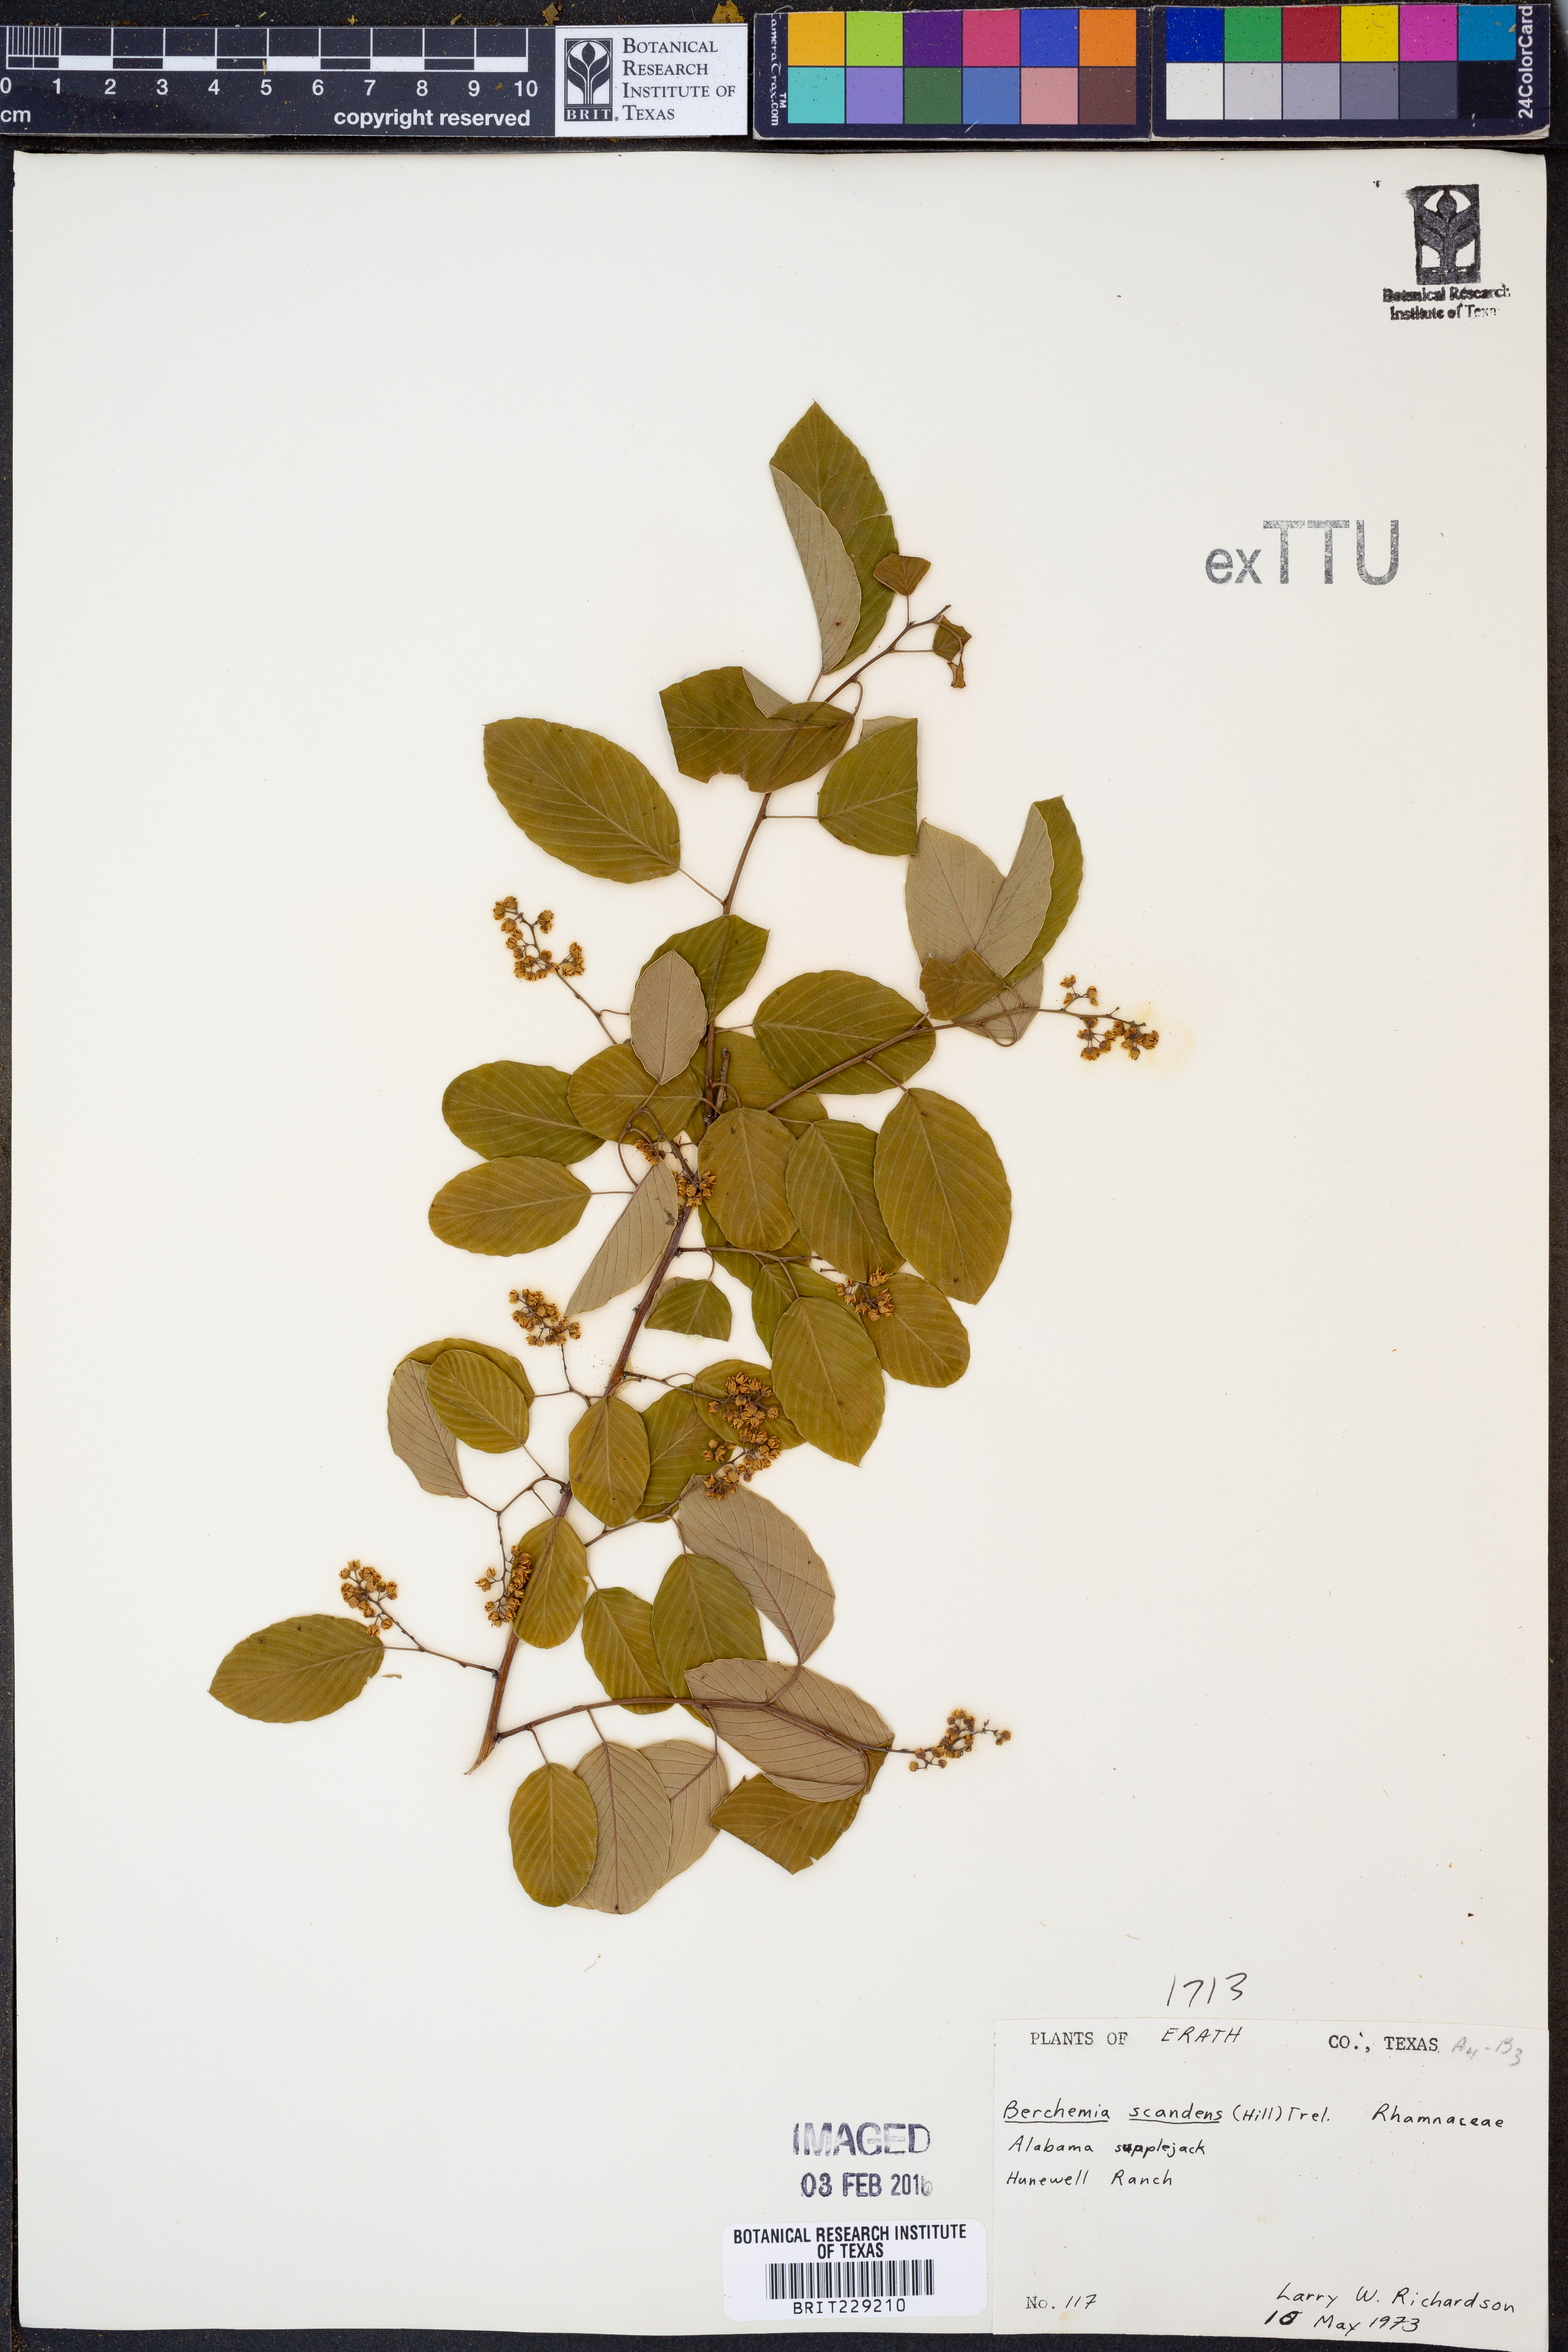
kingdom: Plantae
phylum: Tracheophyta
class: Magnoliopsida
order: Rosales
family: Rhamnaceae
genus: Berchemia
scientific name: Berchemia scandens
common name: Supplejack
